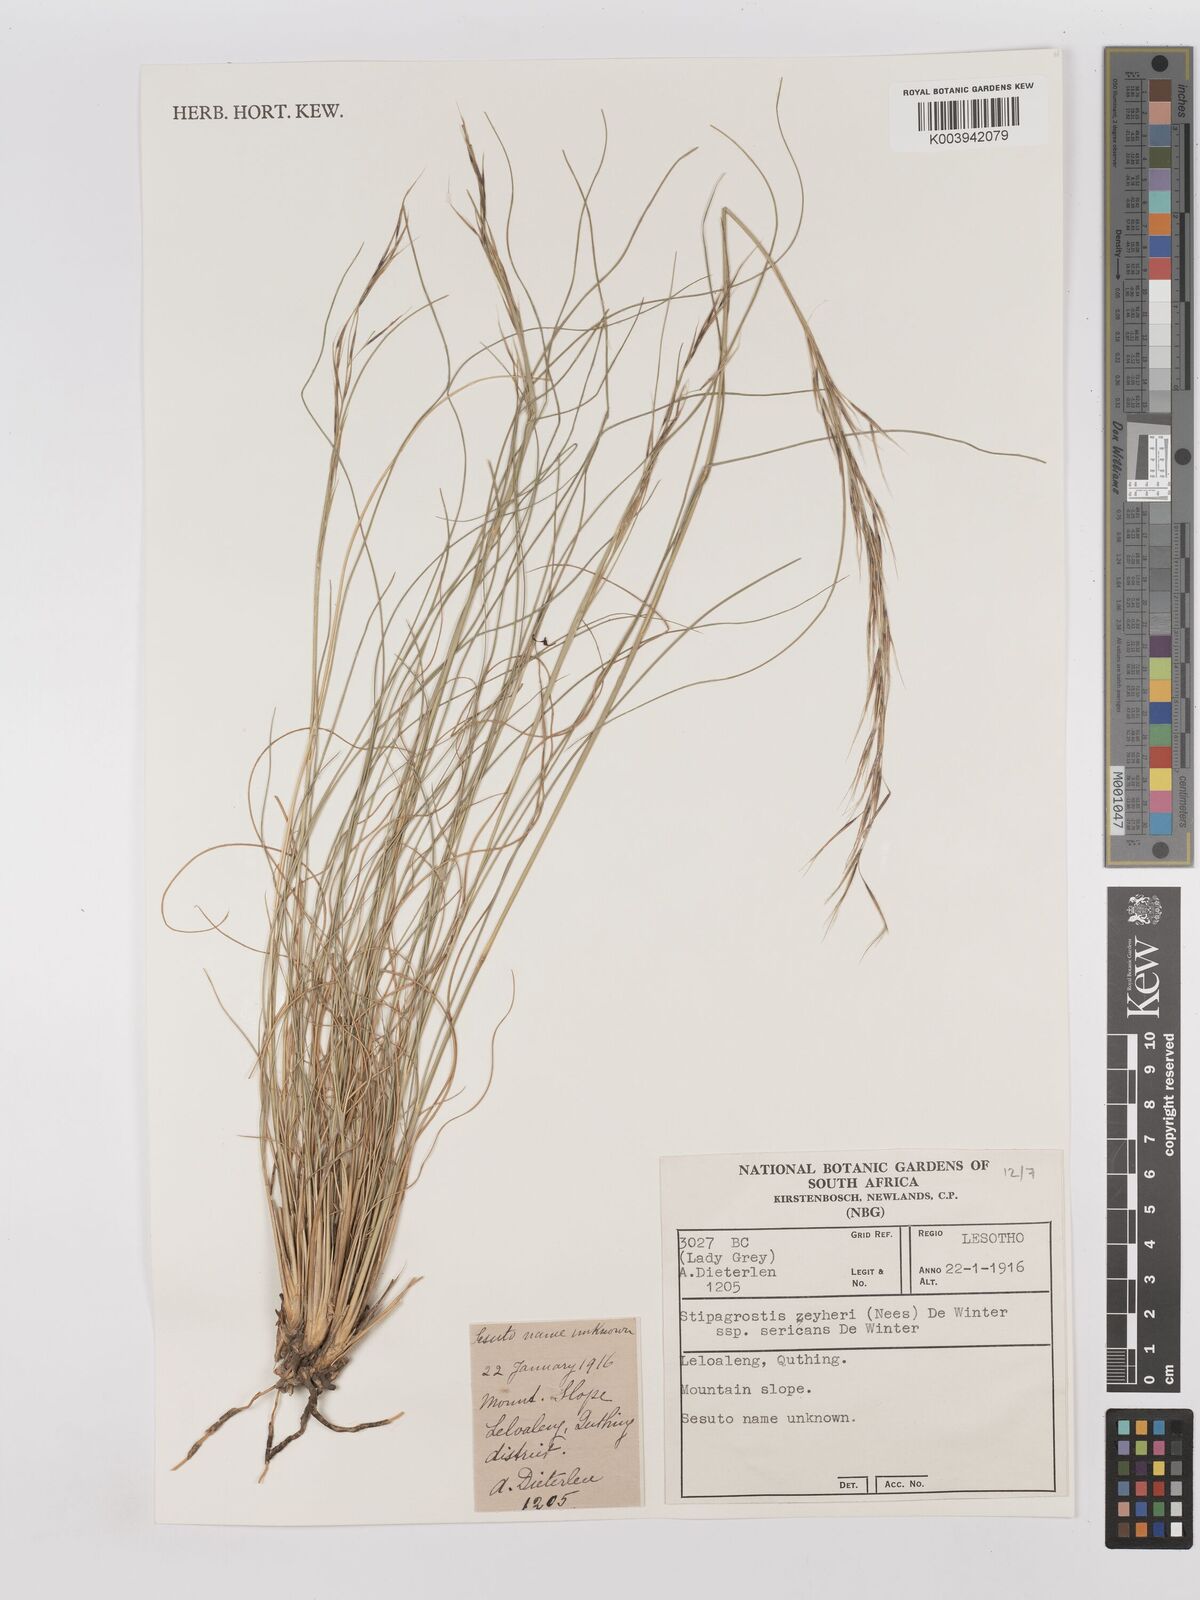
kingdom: Plantae
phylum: Tracheophyta
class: Liliopsida
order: Poales
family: Poaceae
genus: Stipagrostis
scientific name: Stipagrostis zeyheri
